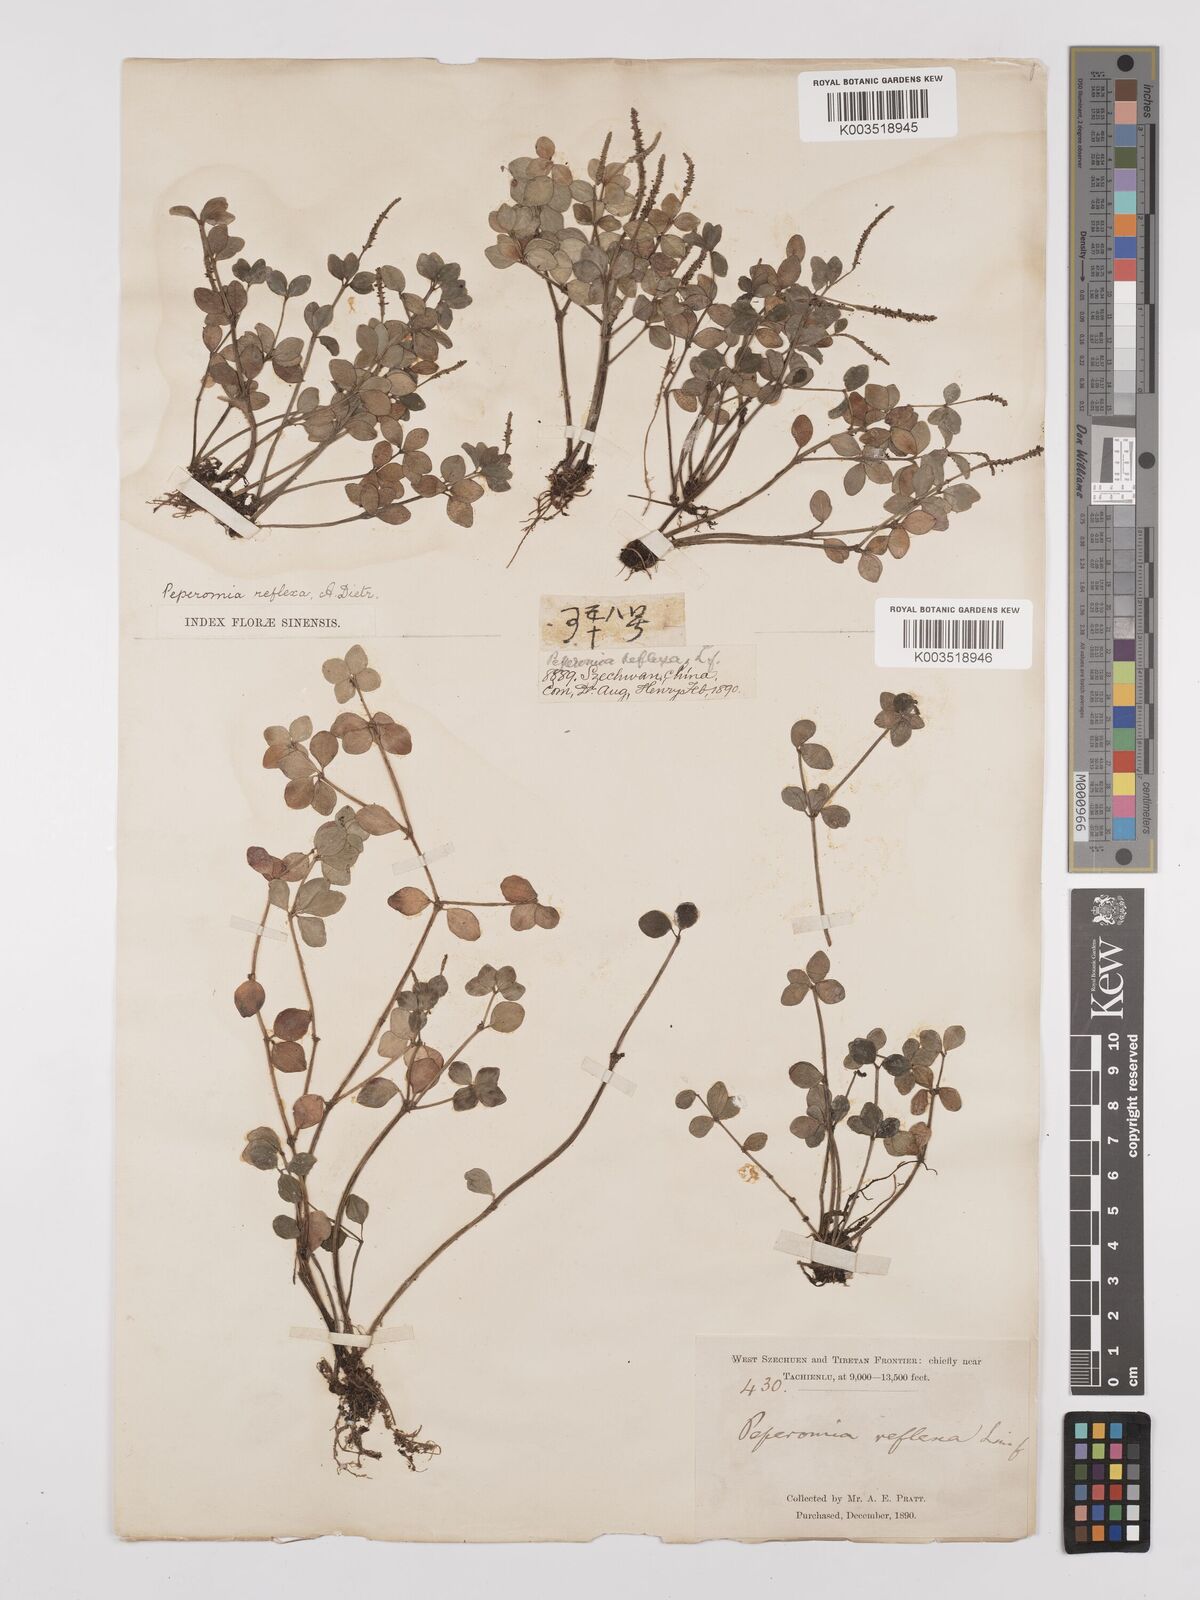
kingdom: Plantae
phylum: Tracheophyta
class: Magnoliopsida
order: Piperales
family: Piperaceae
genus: Peperomia
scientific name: Peperomia tetraphylla
